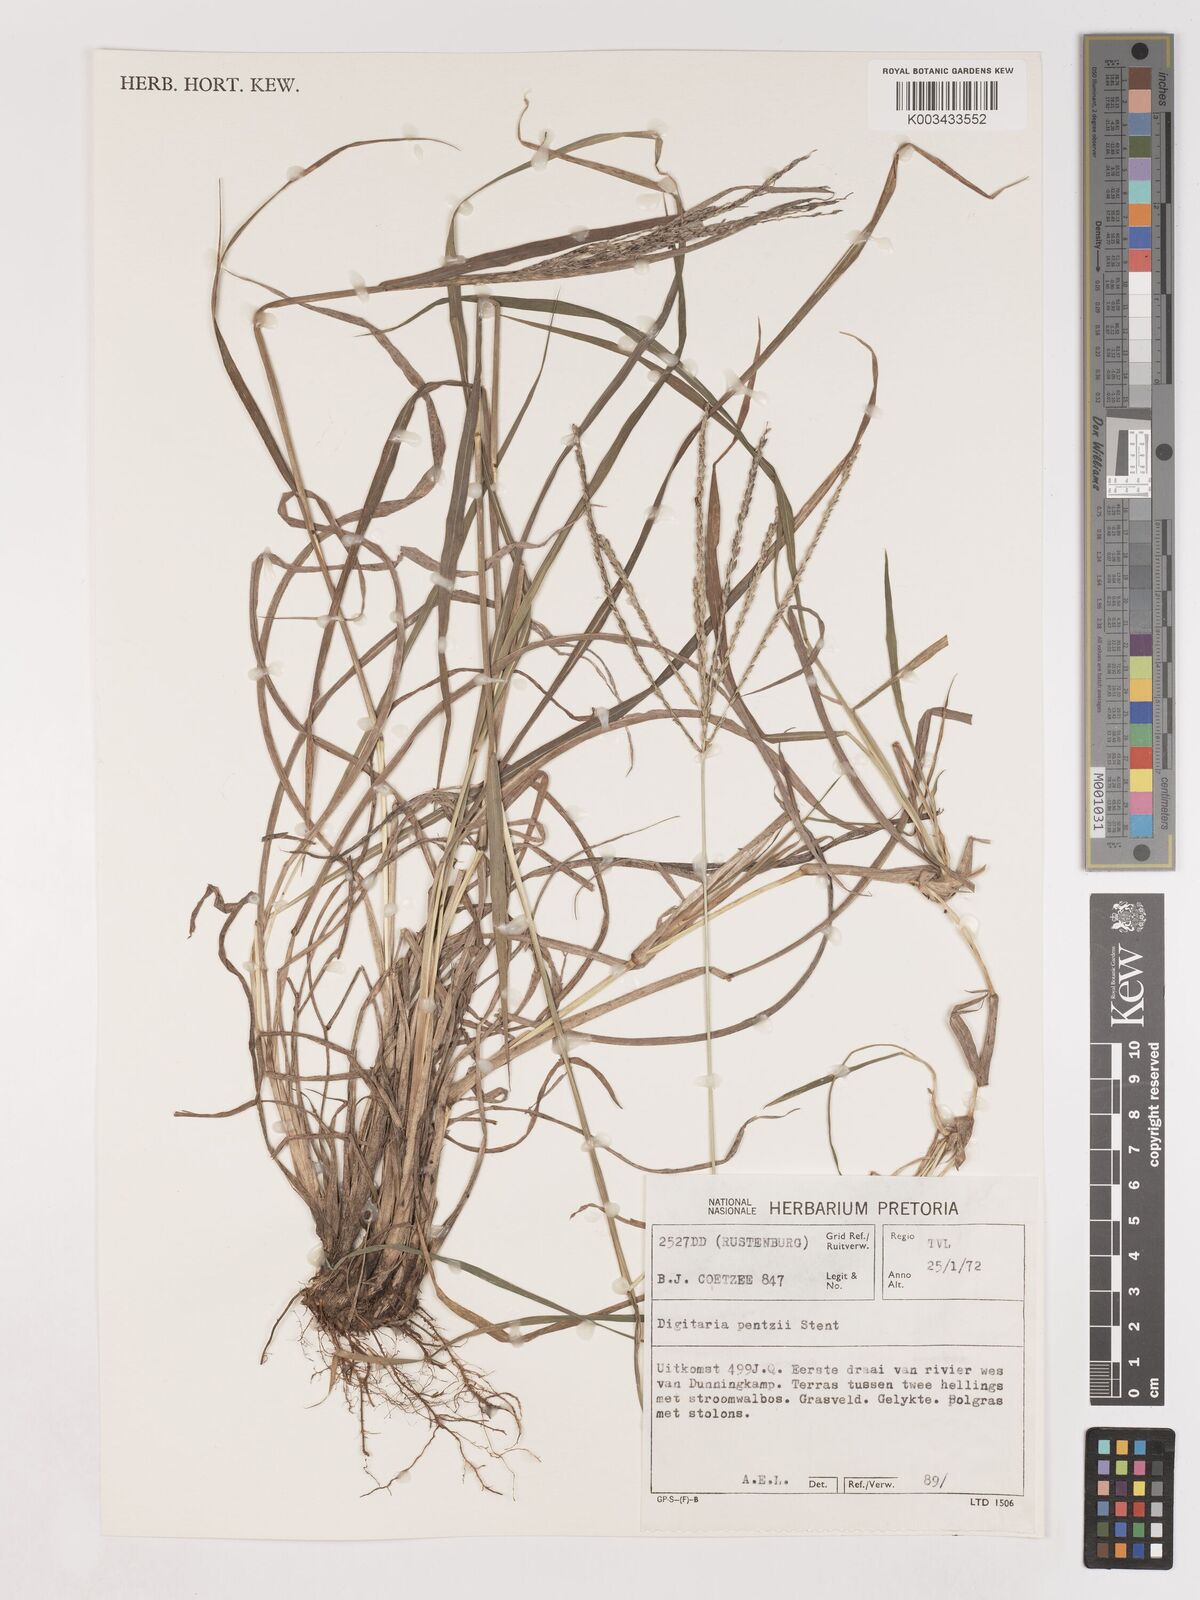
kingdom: Plantae
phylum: Tracheophyta
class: Liliopsida
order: Poales
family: Poaceae
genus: Digitaria
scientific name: Digitaria eriantha
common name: Digitgrass
